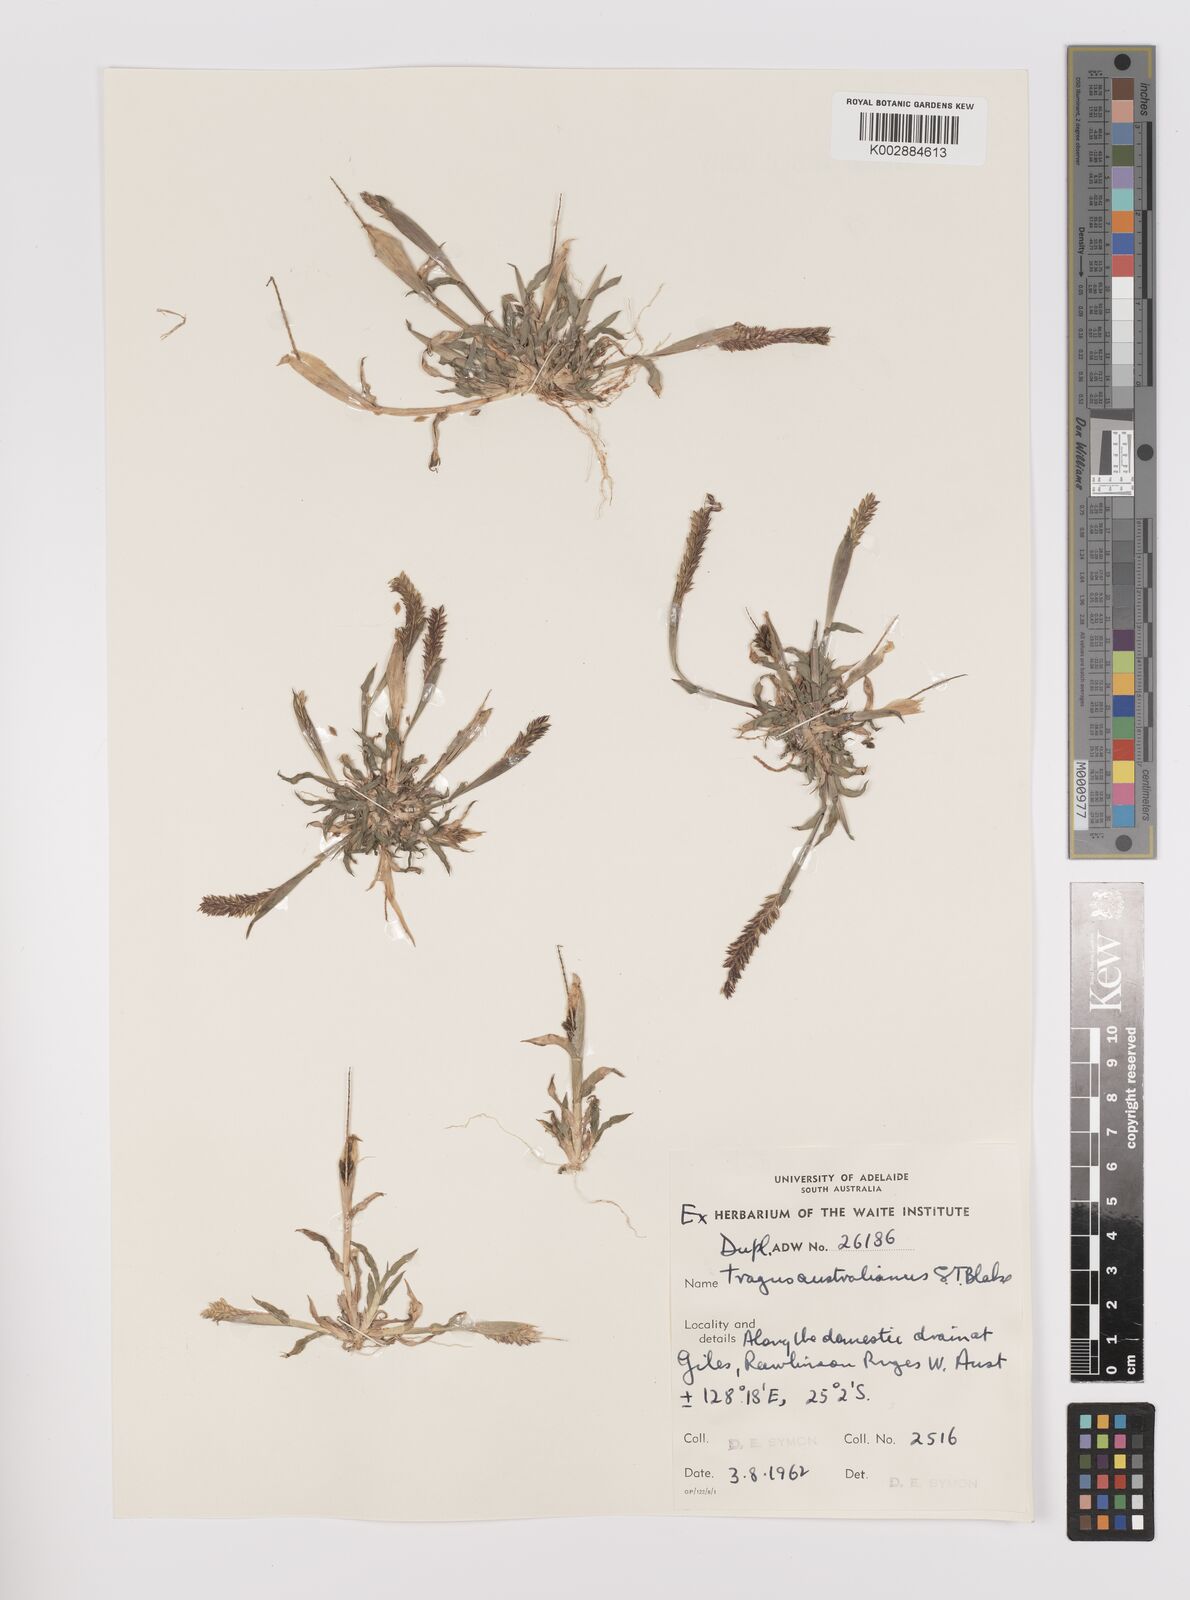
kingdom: Plantae
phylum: Tracheophyta
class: Liliopsida
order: Poales
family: Poaceae
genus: Tragus
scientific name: Tragus australianus
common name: Australian bur-grass
